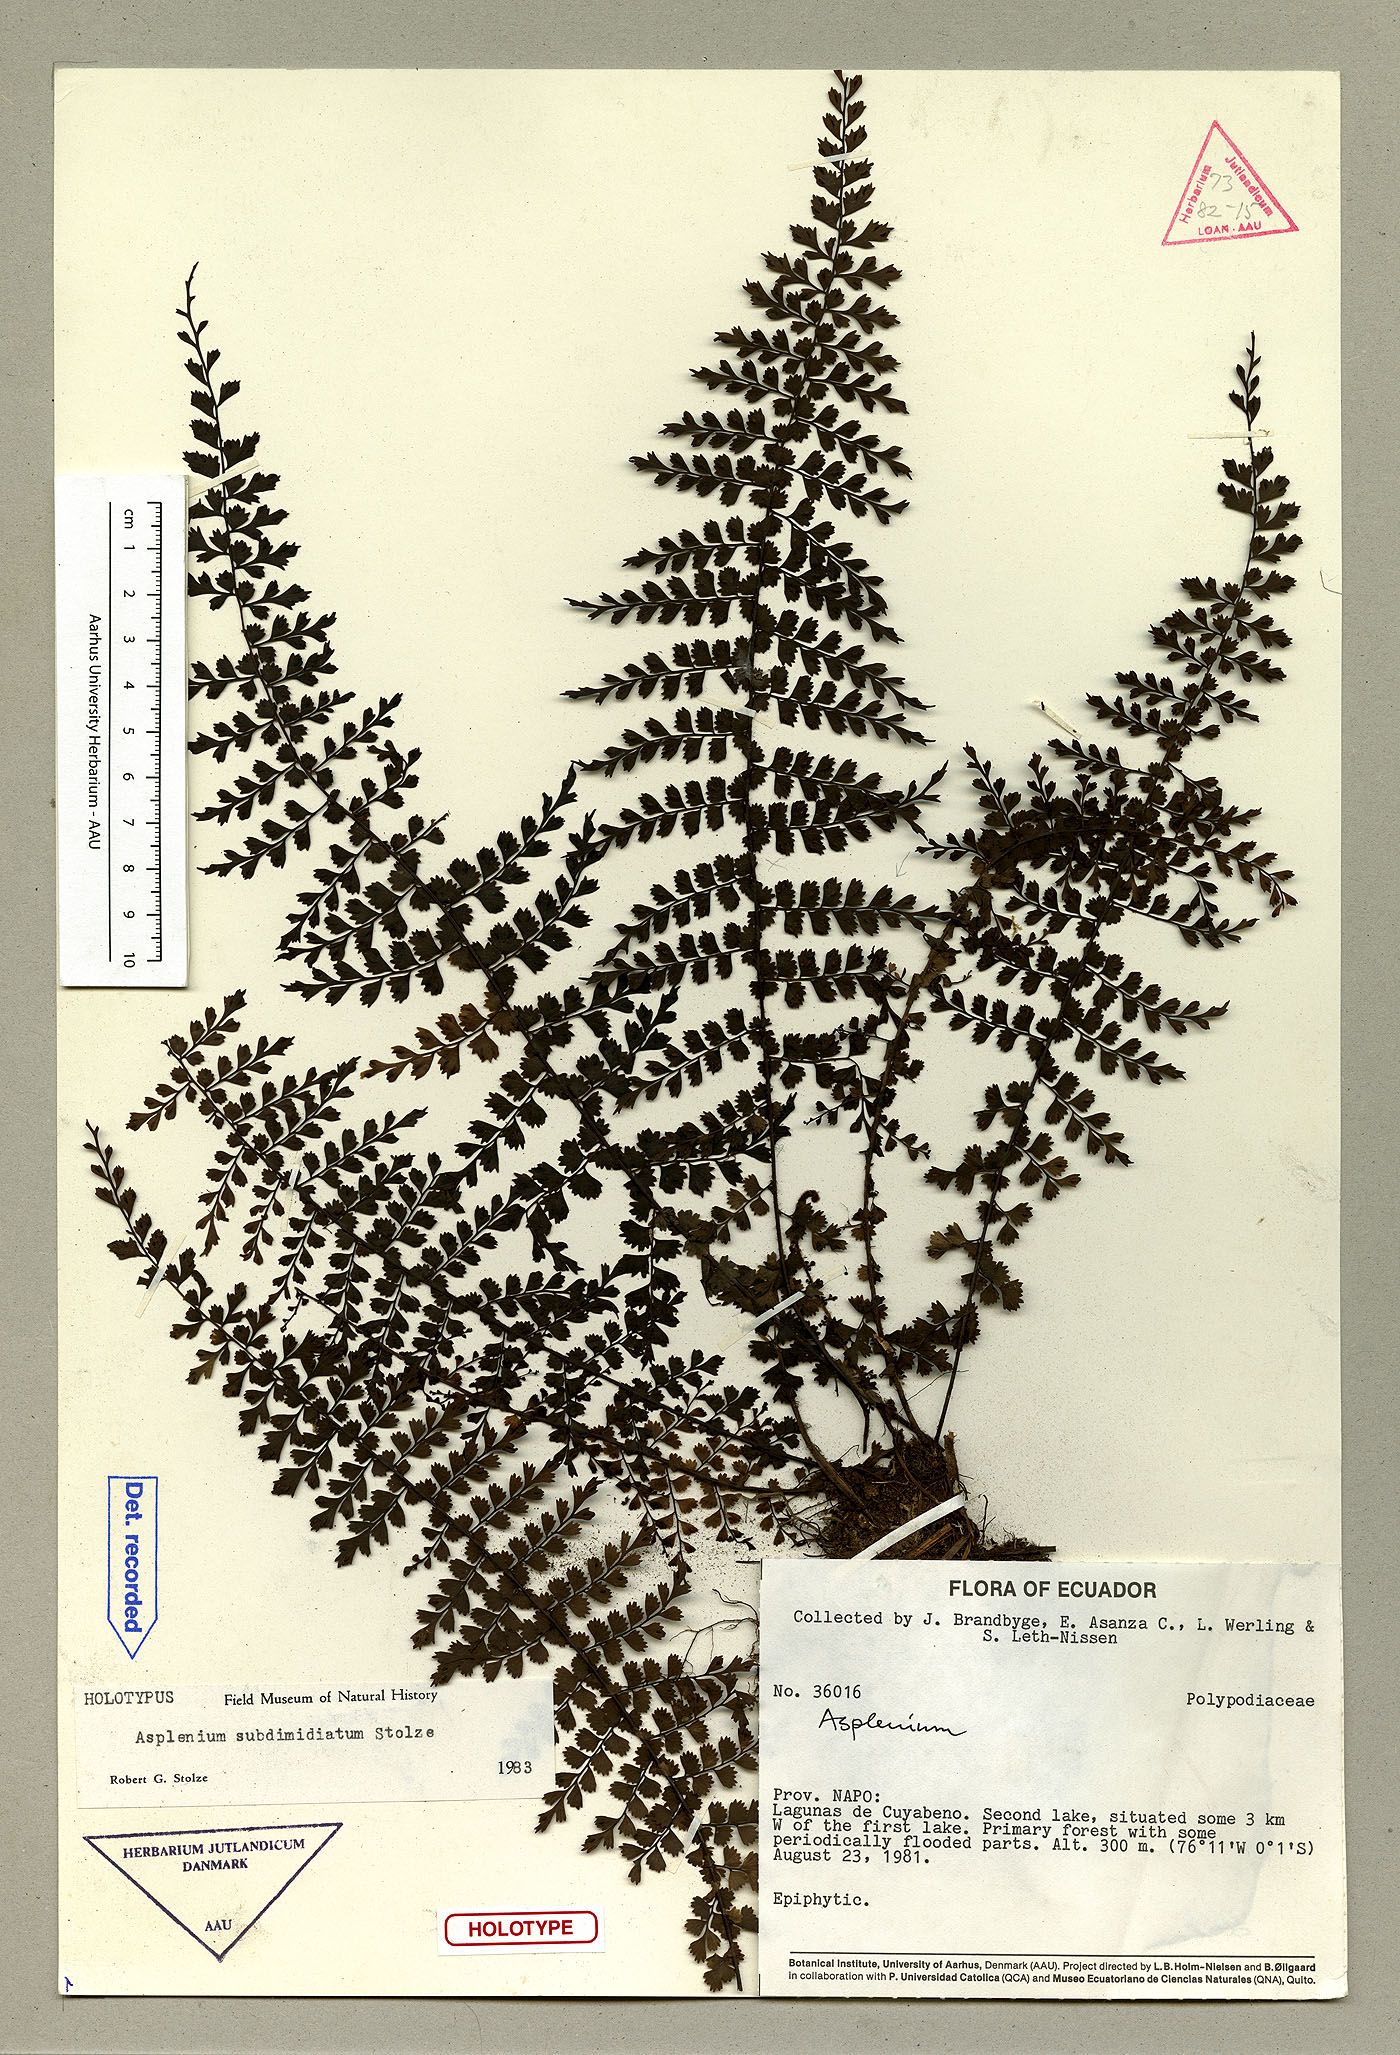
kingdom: Plantae
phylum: Tracheophyta
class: Polypodiopsida
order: Polypodiales
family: Aspleniaceae
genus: Asplenium
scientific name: Asplenium pedicularifolium
